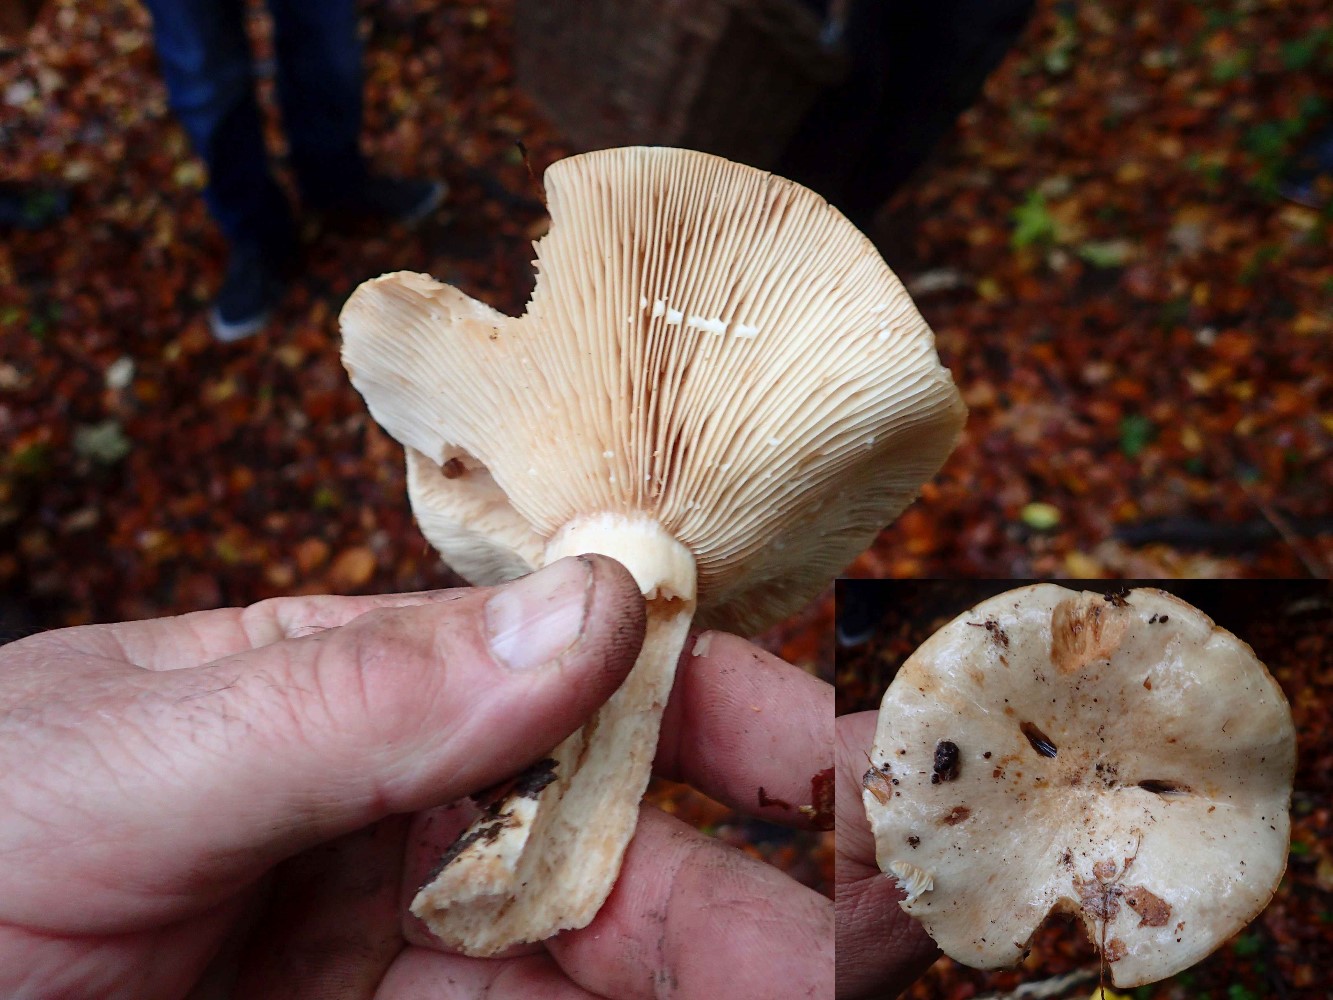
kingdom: Fungi
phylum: Basidiomycota
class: Agaricomycetes
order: Russulales
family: Russulaceae
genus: Lactarius
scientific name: Lactarius pallidus
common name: bleg mælkehat
